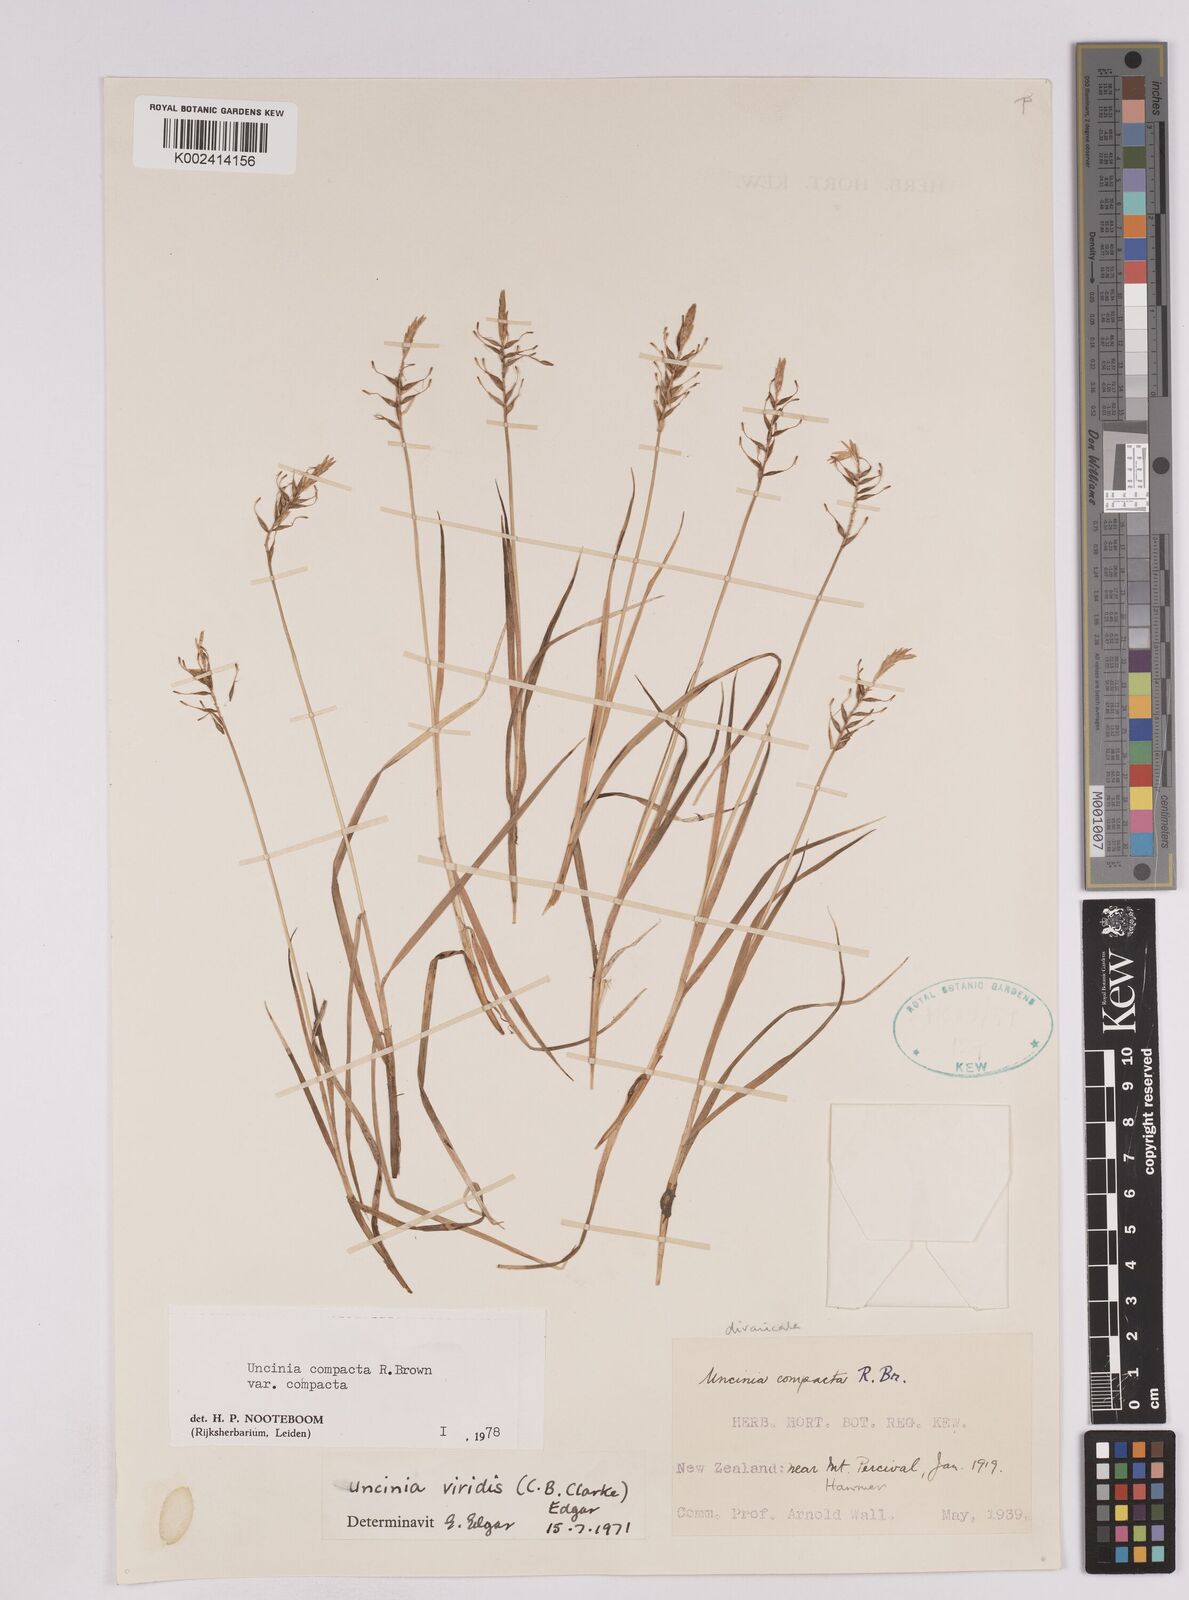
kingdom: Plantae
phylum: Tracheophyta
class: Liliopsida
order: Poales
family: Cyperaceae
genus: Carex
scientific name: Carex austrocompacta
